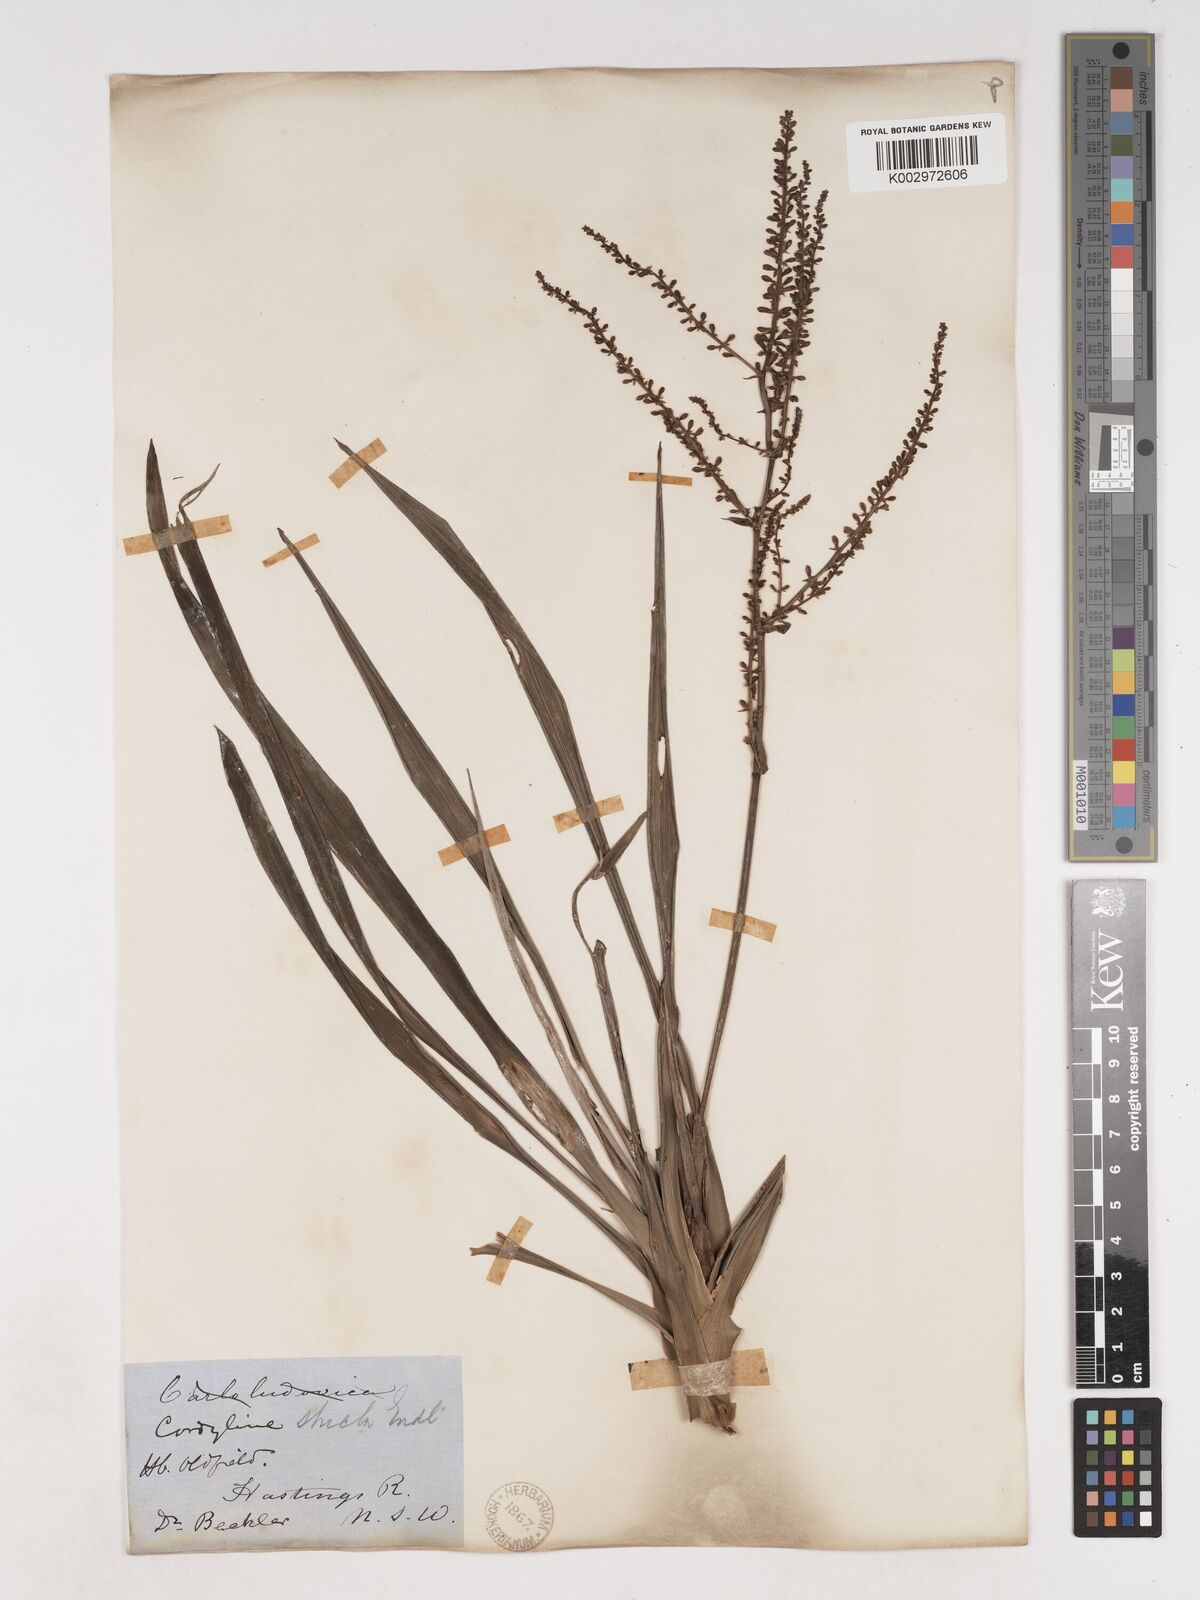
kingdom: Plantae
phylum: Tracheophyta
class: Liliopsida
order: Asparagales
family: Asparagaceae
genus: Cordyline
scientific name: Cordyline stricta
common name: Narrow-leaf palm-lily
